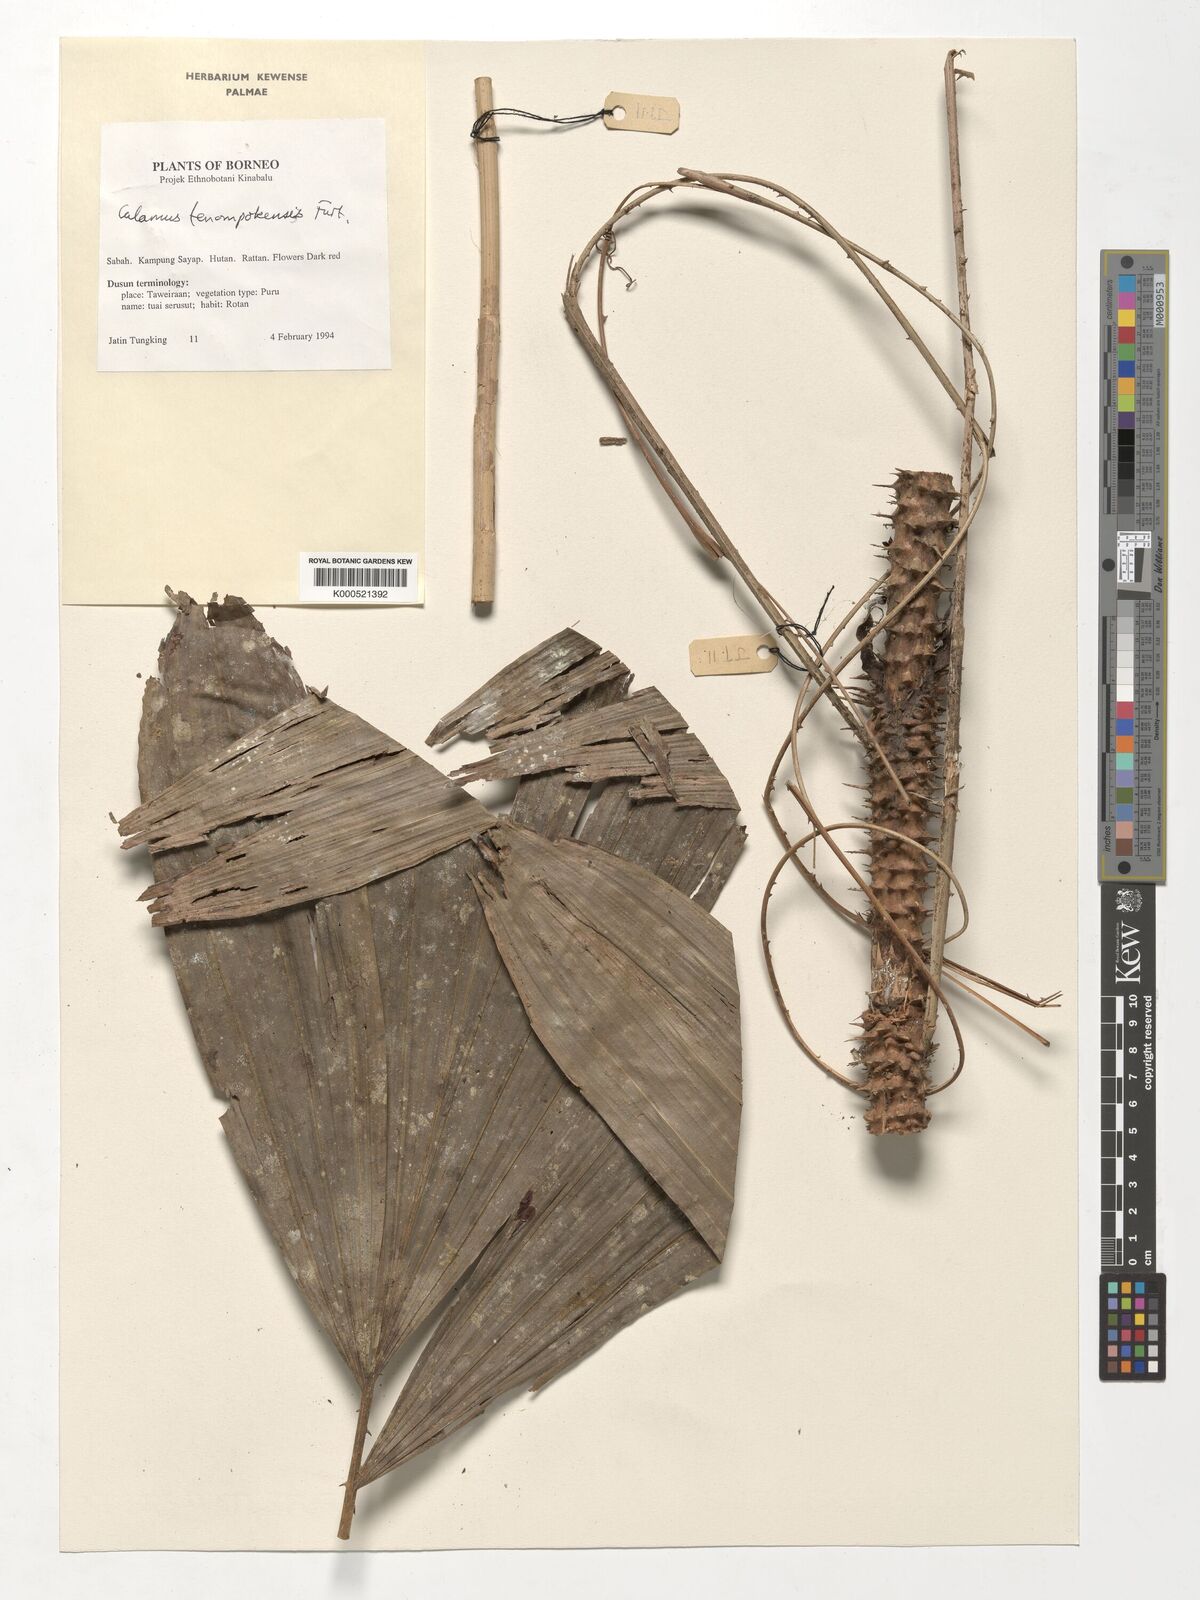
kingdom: Plantae
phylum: Tracheophyta
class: Liliopsida
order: Arecales
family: Arecaceae
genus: Calamus
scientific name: Calamus tenompokensis
